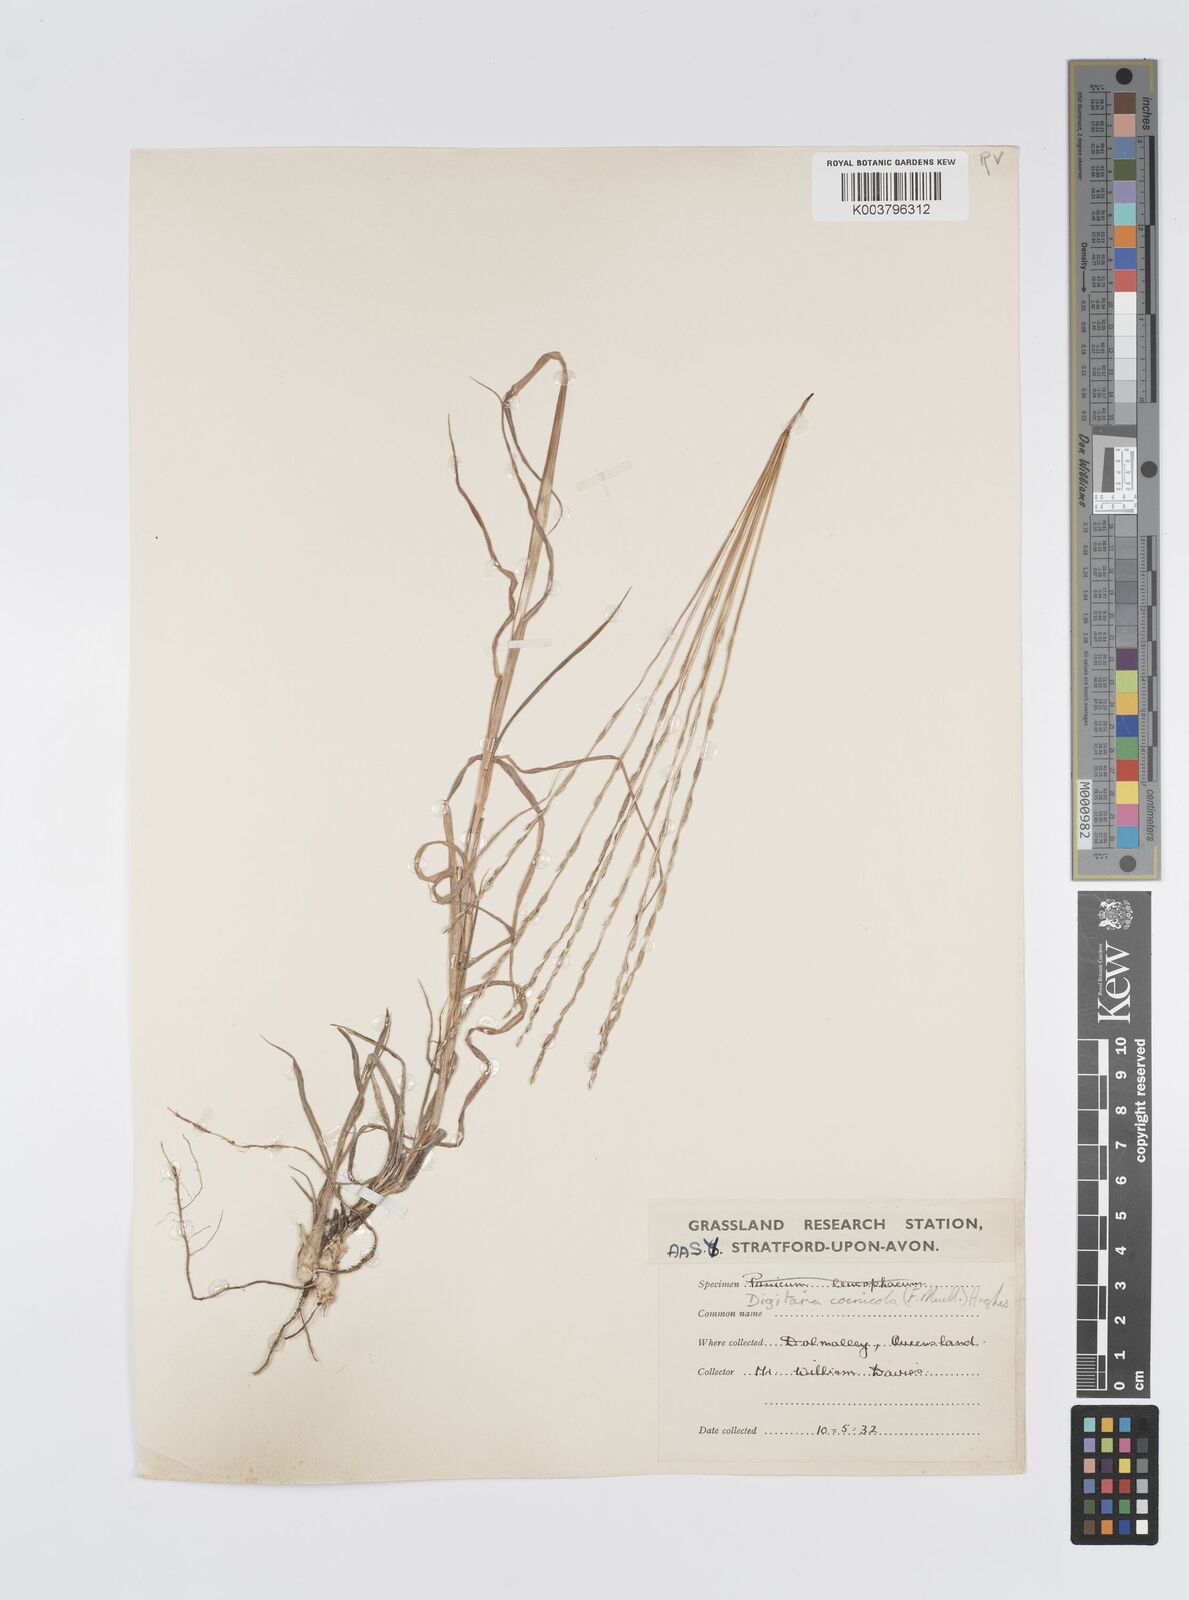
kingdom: Plantae
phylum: Tracheophyta
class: Liliopsida
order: Poales
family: Poaceae
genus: Digitaria
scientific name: Digitaria coenicola
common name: Kanta grass
